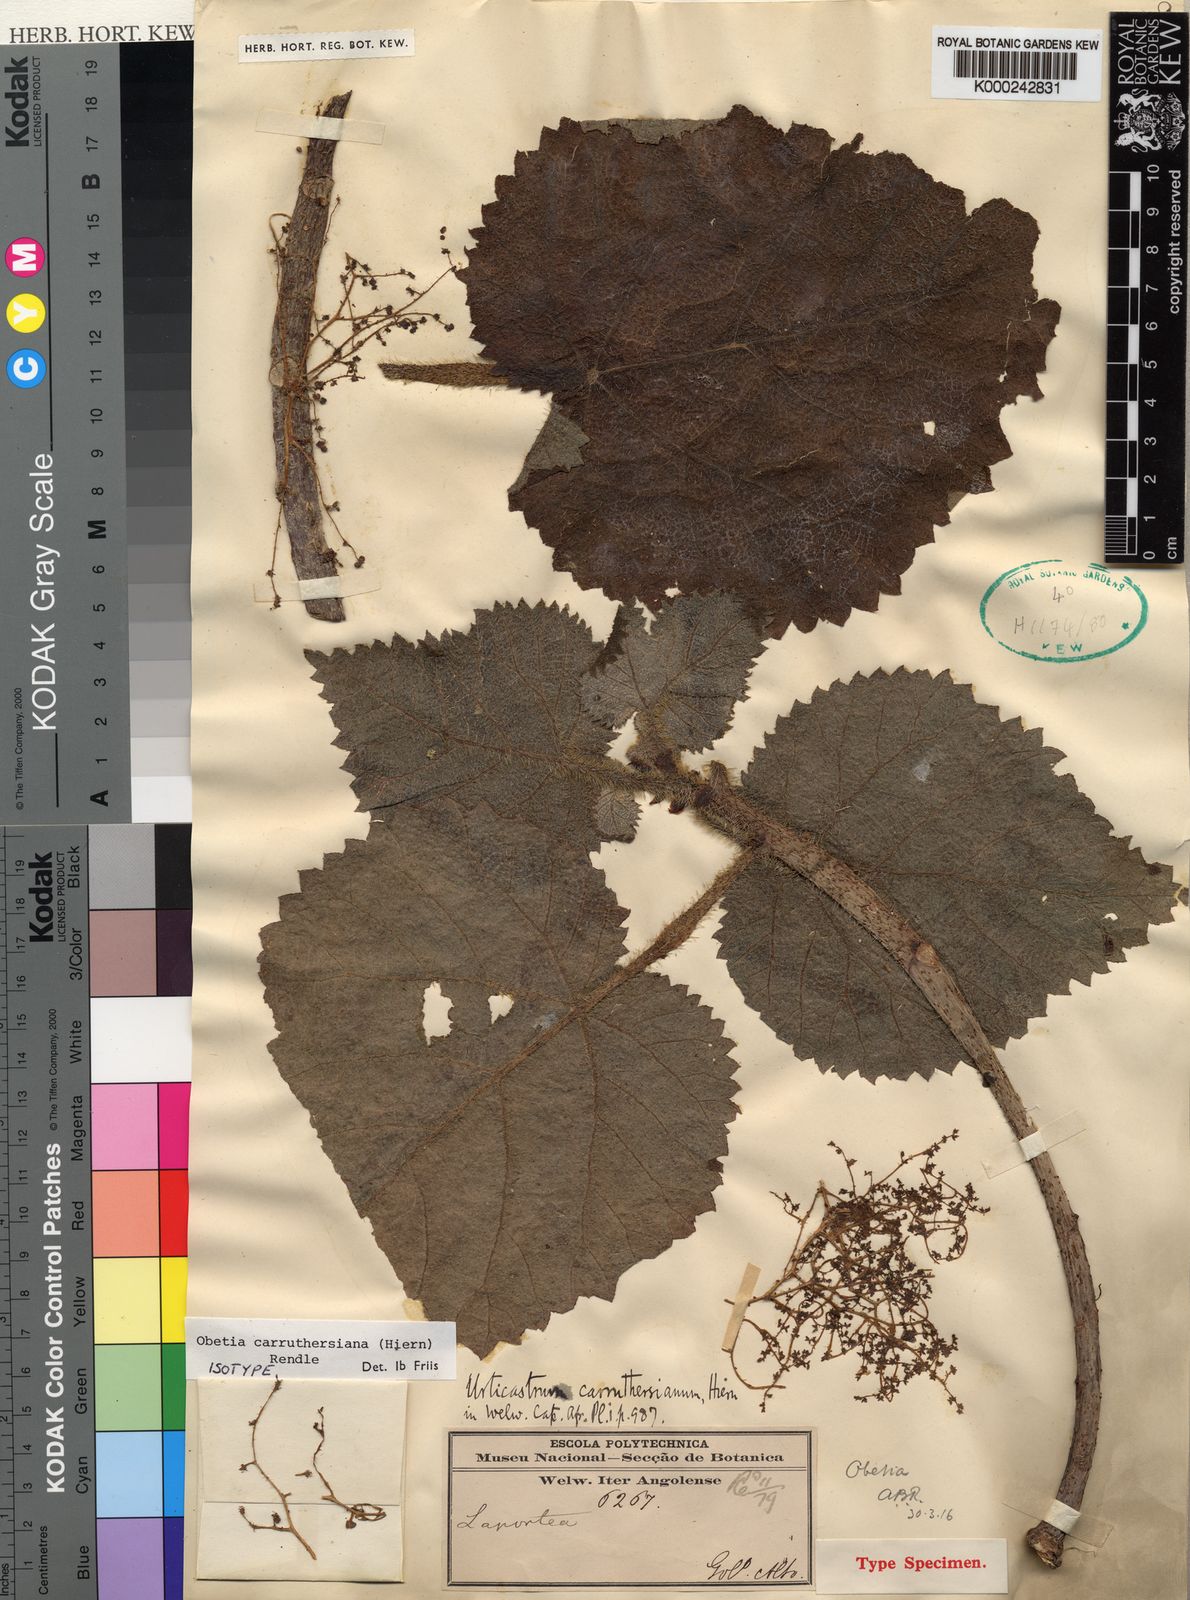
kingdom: Plantae
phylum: Tracheophyta
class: Magnoliopsida
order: Rosales
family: Urticaceae
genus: Obetia
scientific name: Obetia carruthersiana
